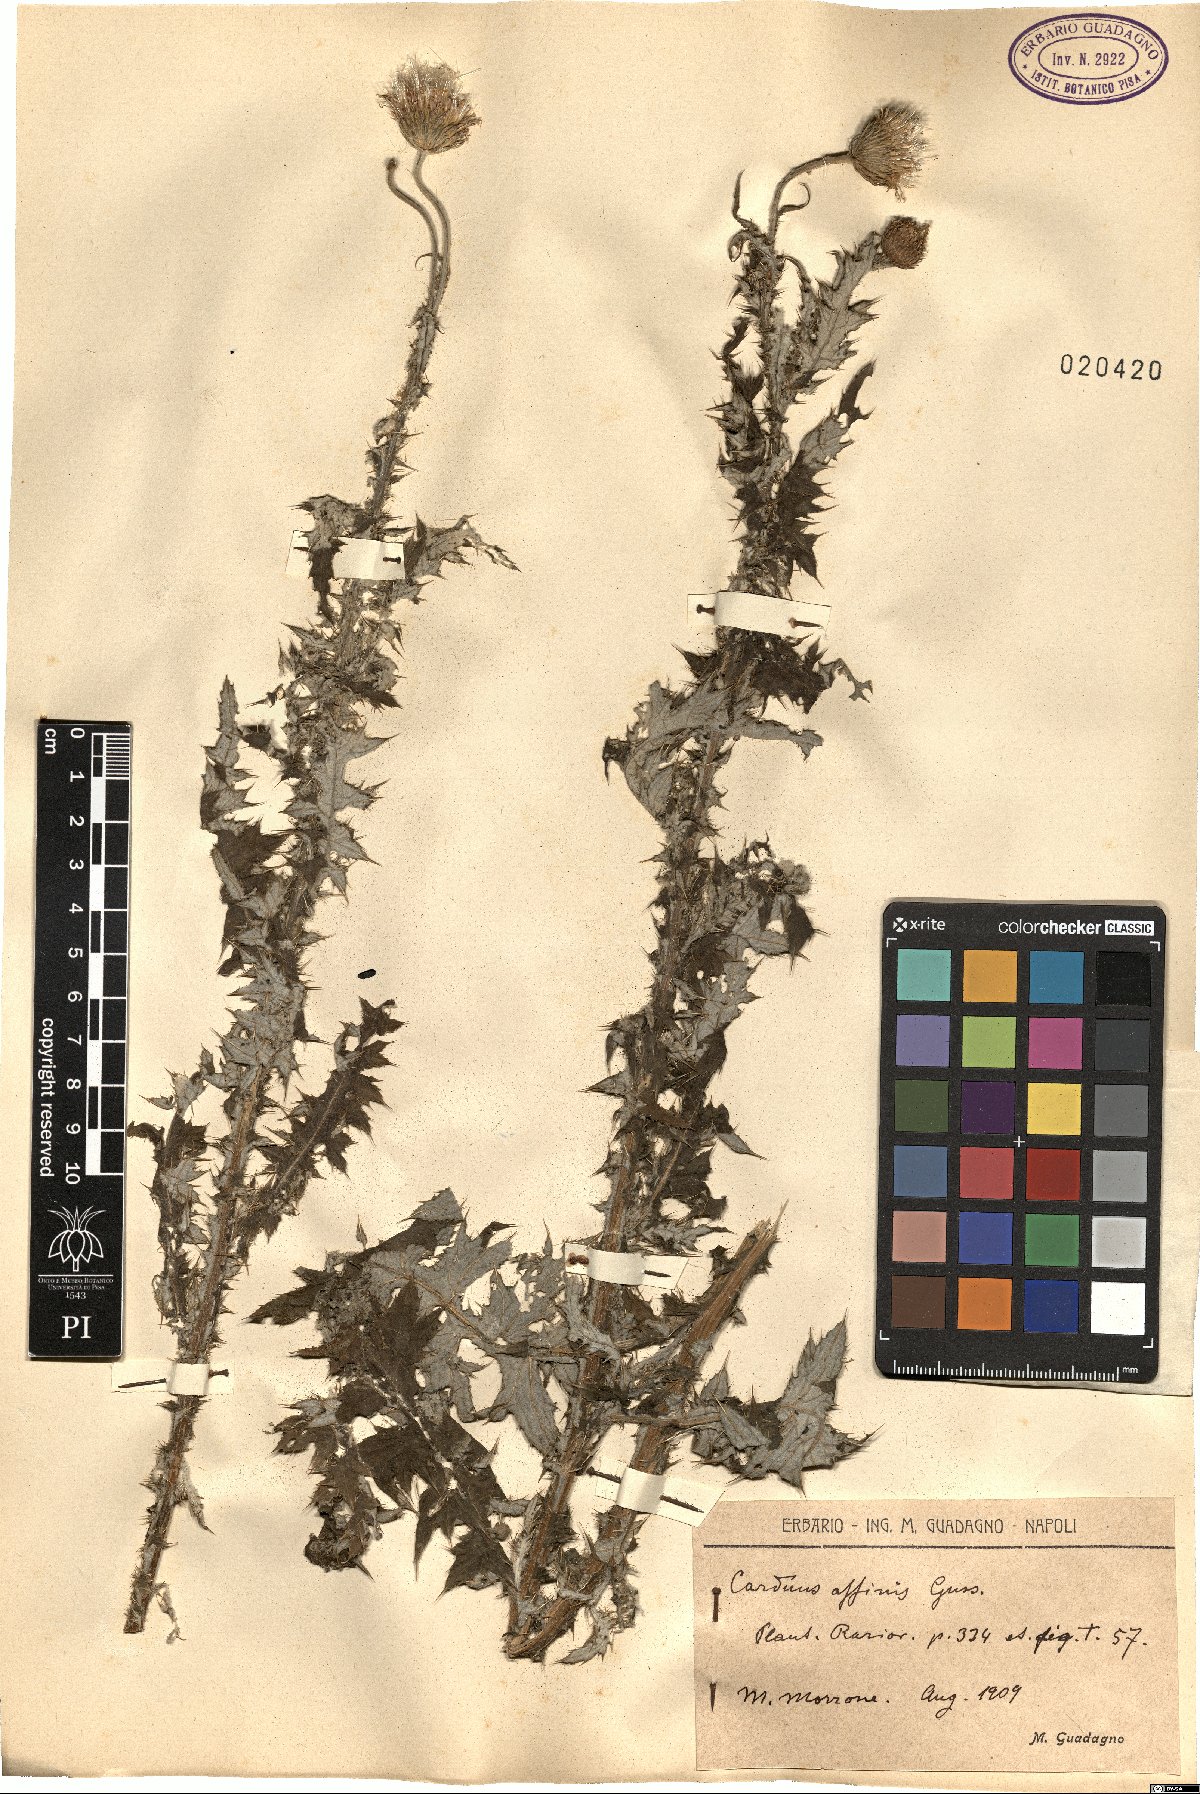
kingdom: Plantae
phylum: Tracheophyta
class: Magnoliopsida
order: Asterales
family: Asteraceae
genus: Carduus
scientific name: Carduus affinis
